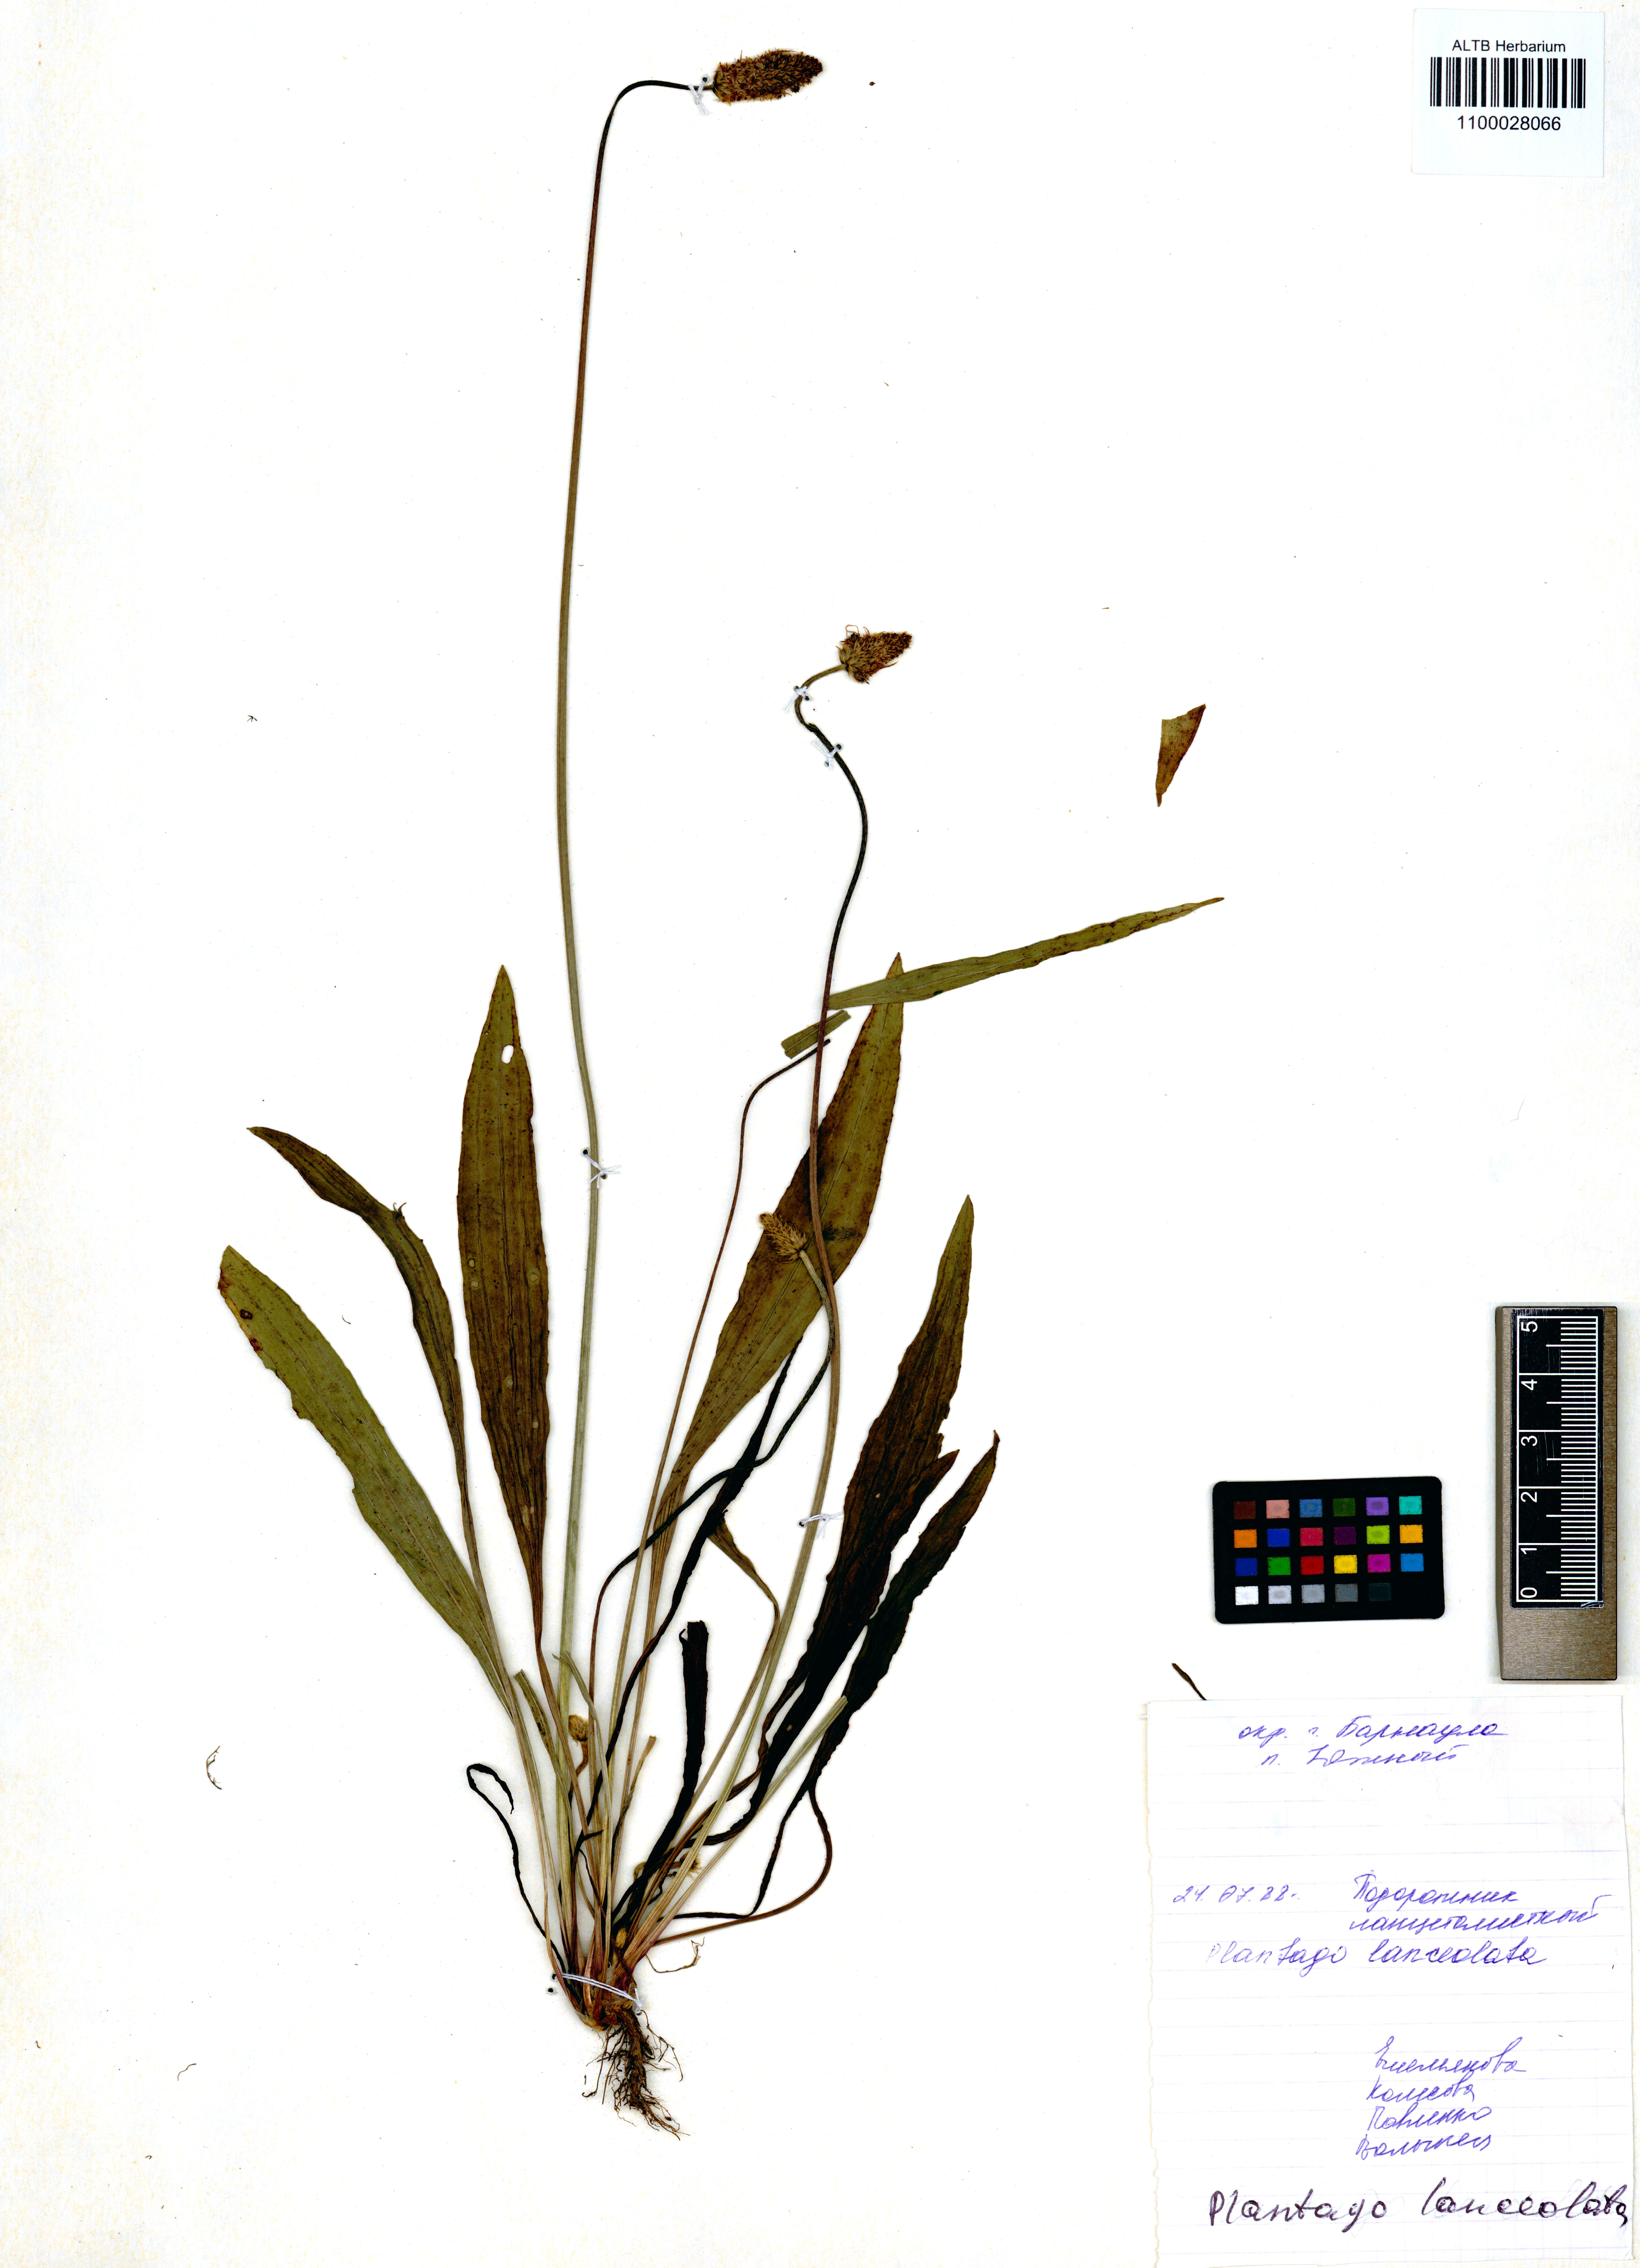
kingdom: Plantae
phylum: Tracheophyta
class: Magnoliopsida
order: Lamiales
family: Plantaginaceae
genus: Plantago
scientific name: Plantago lanceolata
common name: Ribwort plantain
